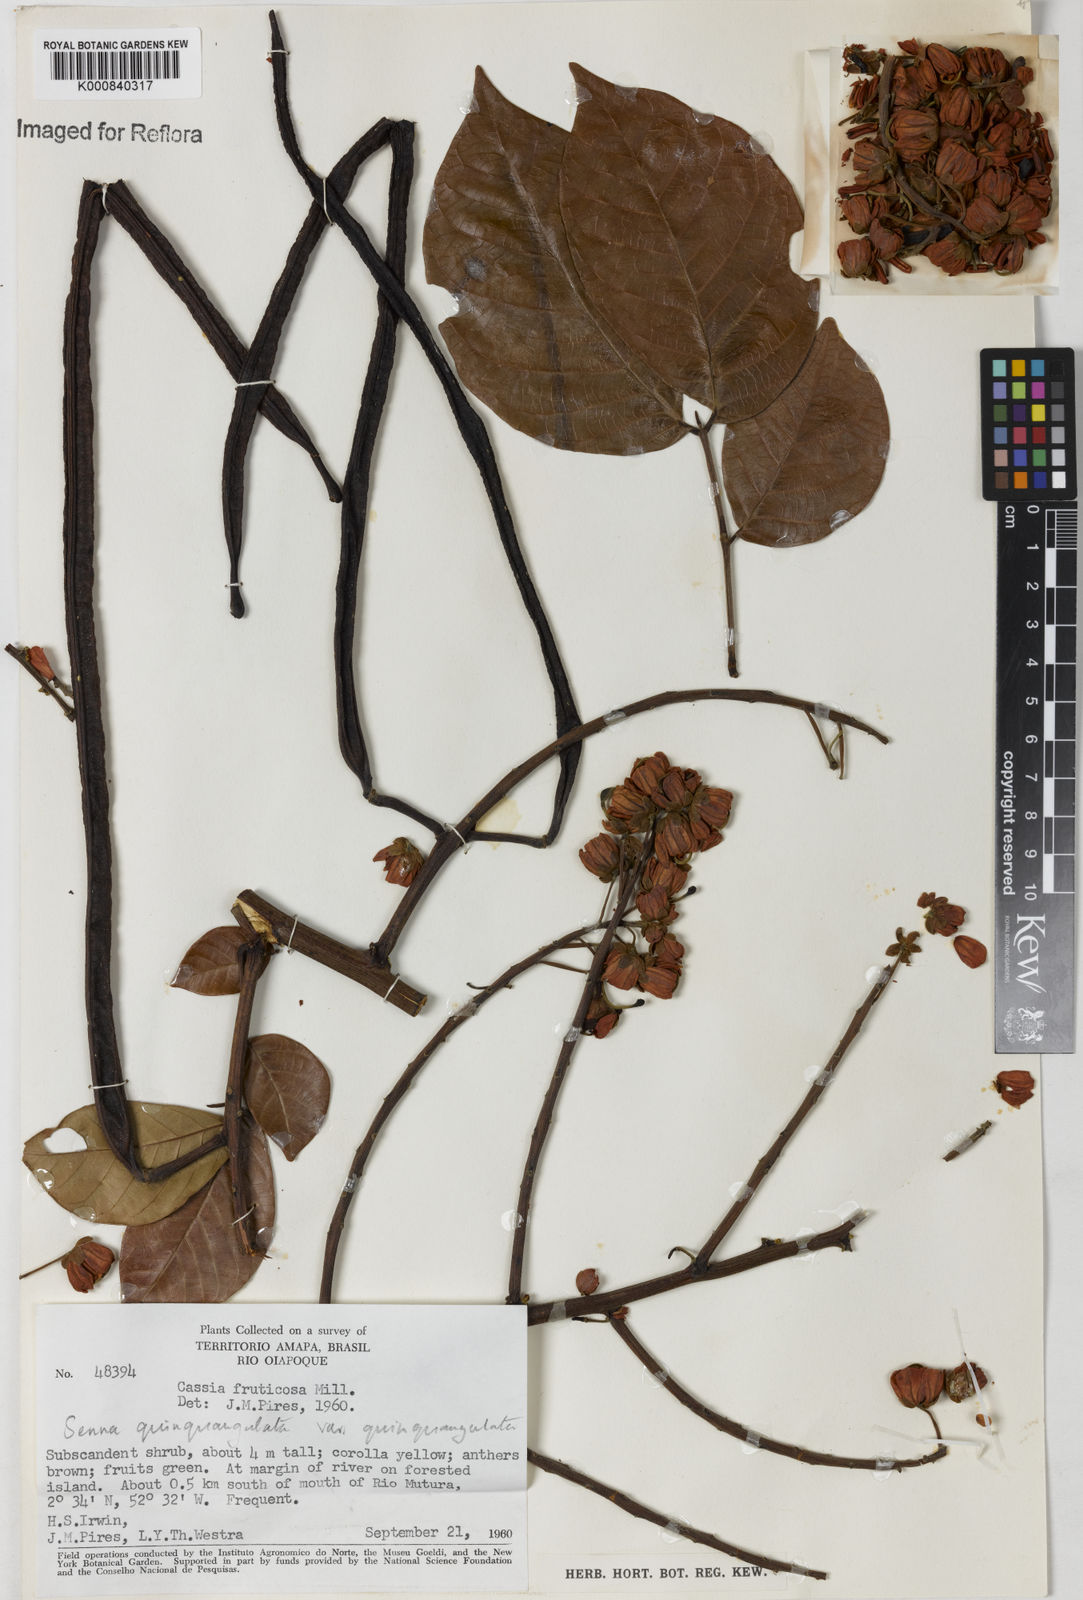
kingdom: Plantae
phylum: Tracheophyta
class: Magnoliopsida
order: Fabales
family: Fabaceae
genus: Senna
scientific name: Senna
